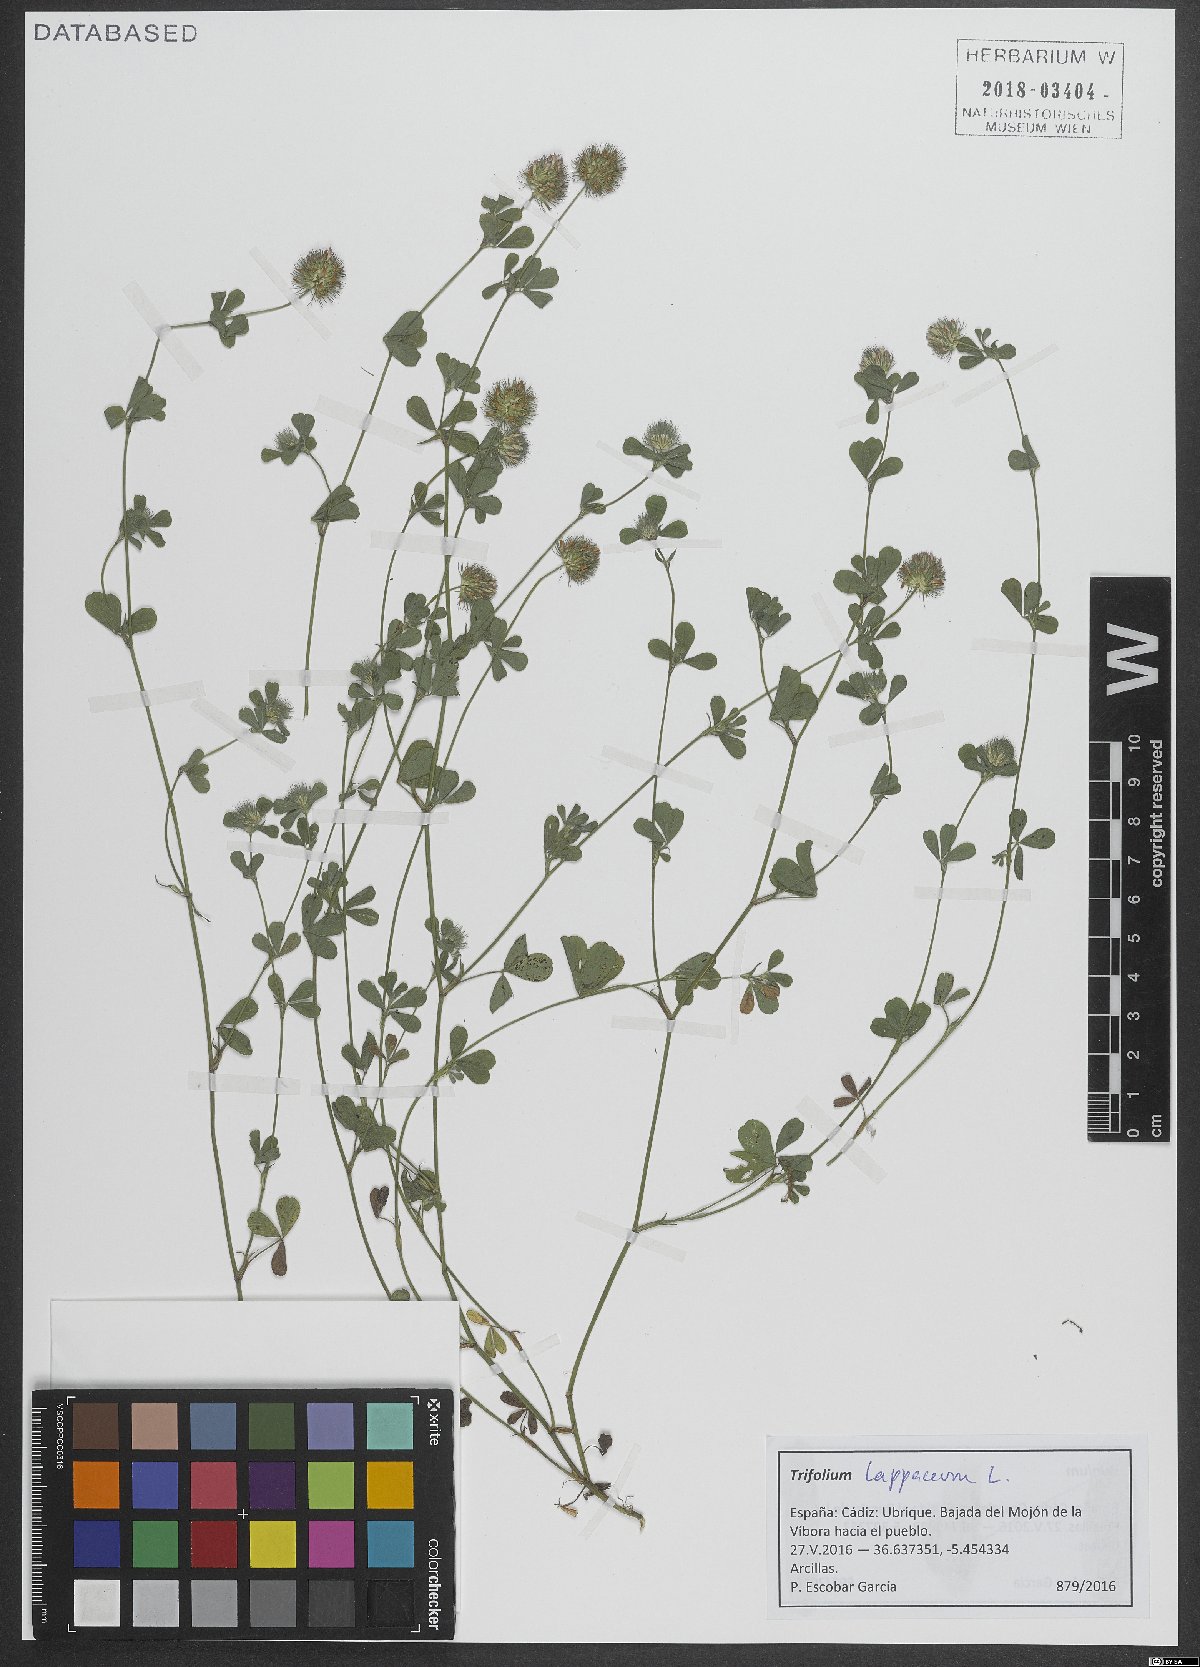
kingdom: Plantae
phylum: Tracheophyta
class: Magnoliopsida
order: Fabales
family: Fabaceae
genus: Trifolium
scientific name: Trifolium lappaceum
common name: Bur clover
